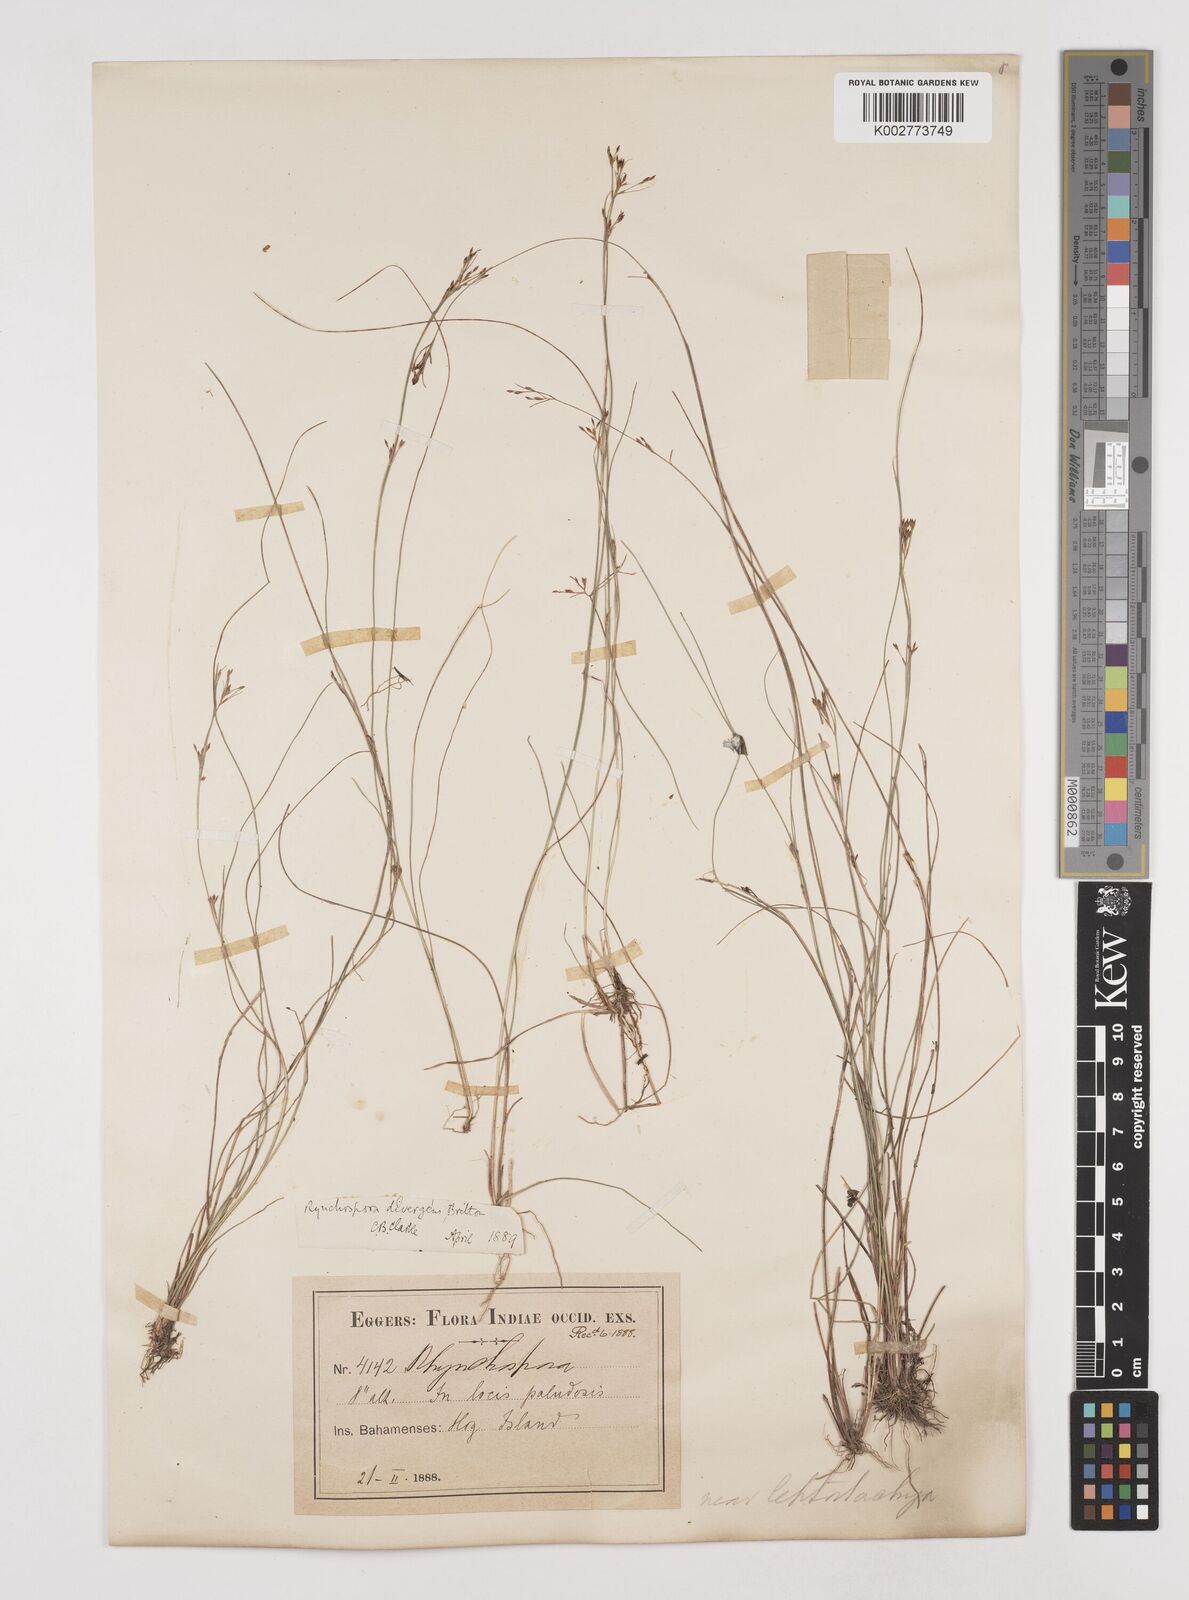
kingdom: Plantae
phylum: Tracheophyta
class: Liliopsida
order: Poales
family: Cyperaceae
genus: Rhynchospora
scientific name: Rhynchospora divergens
